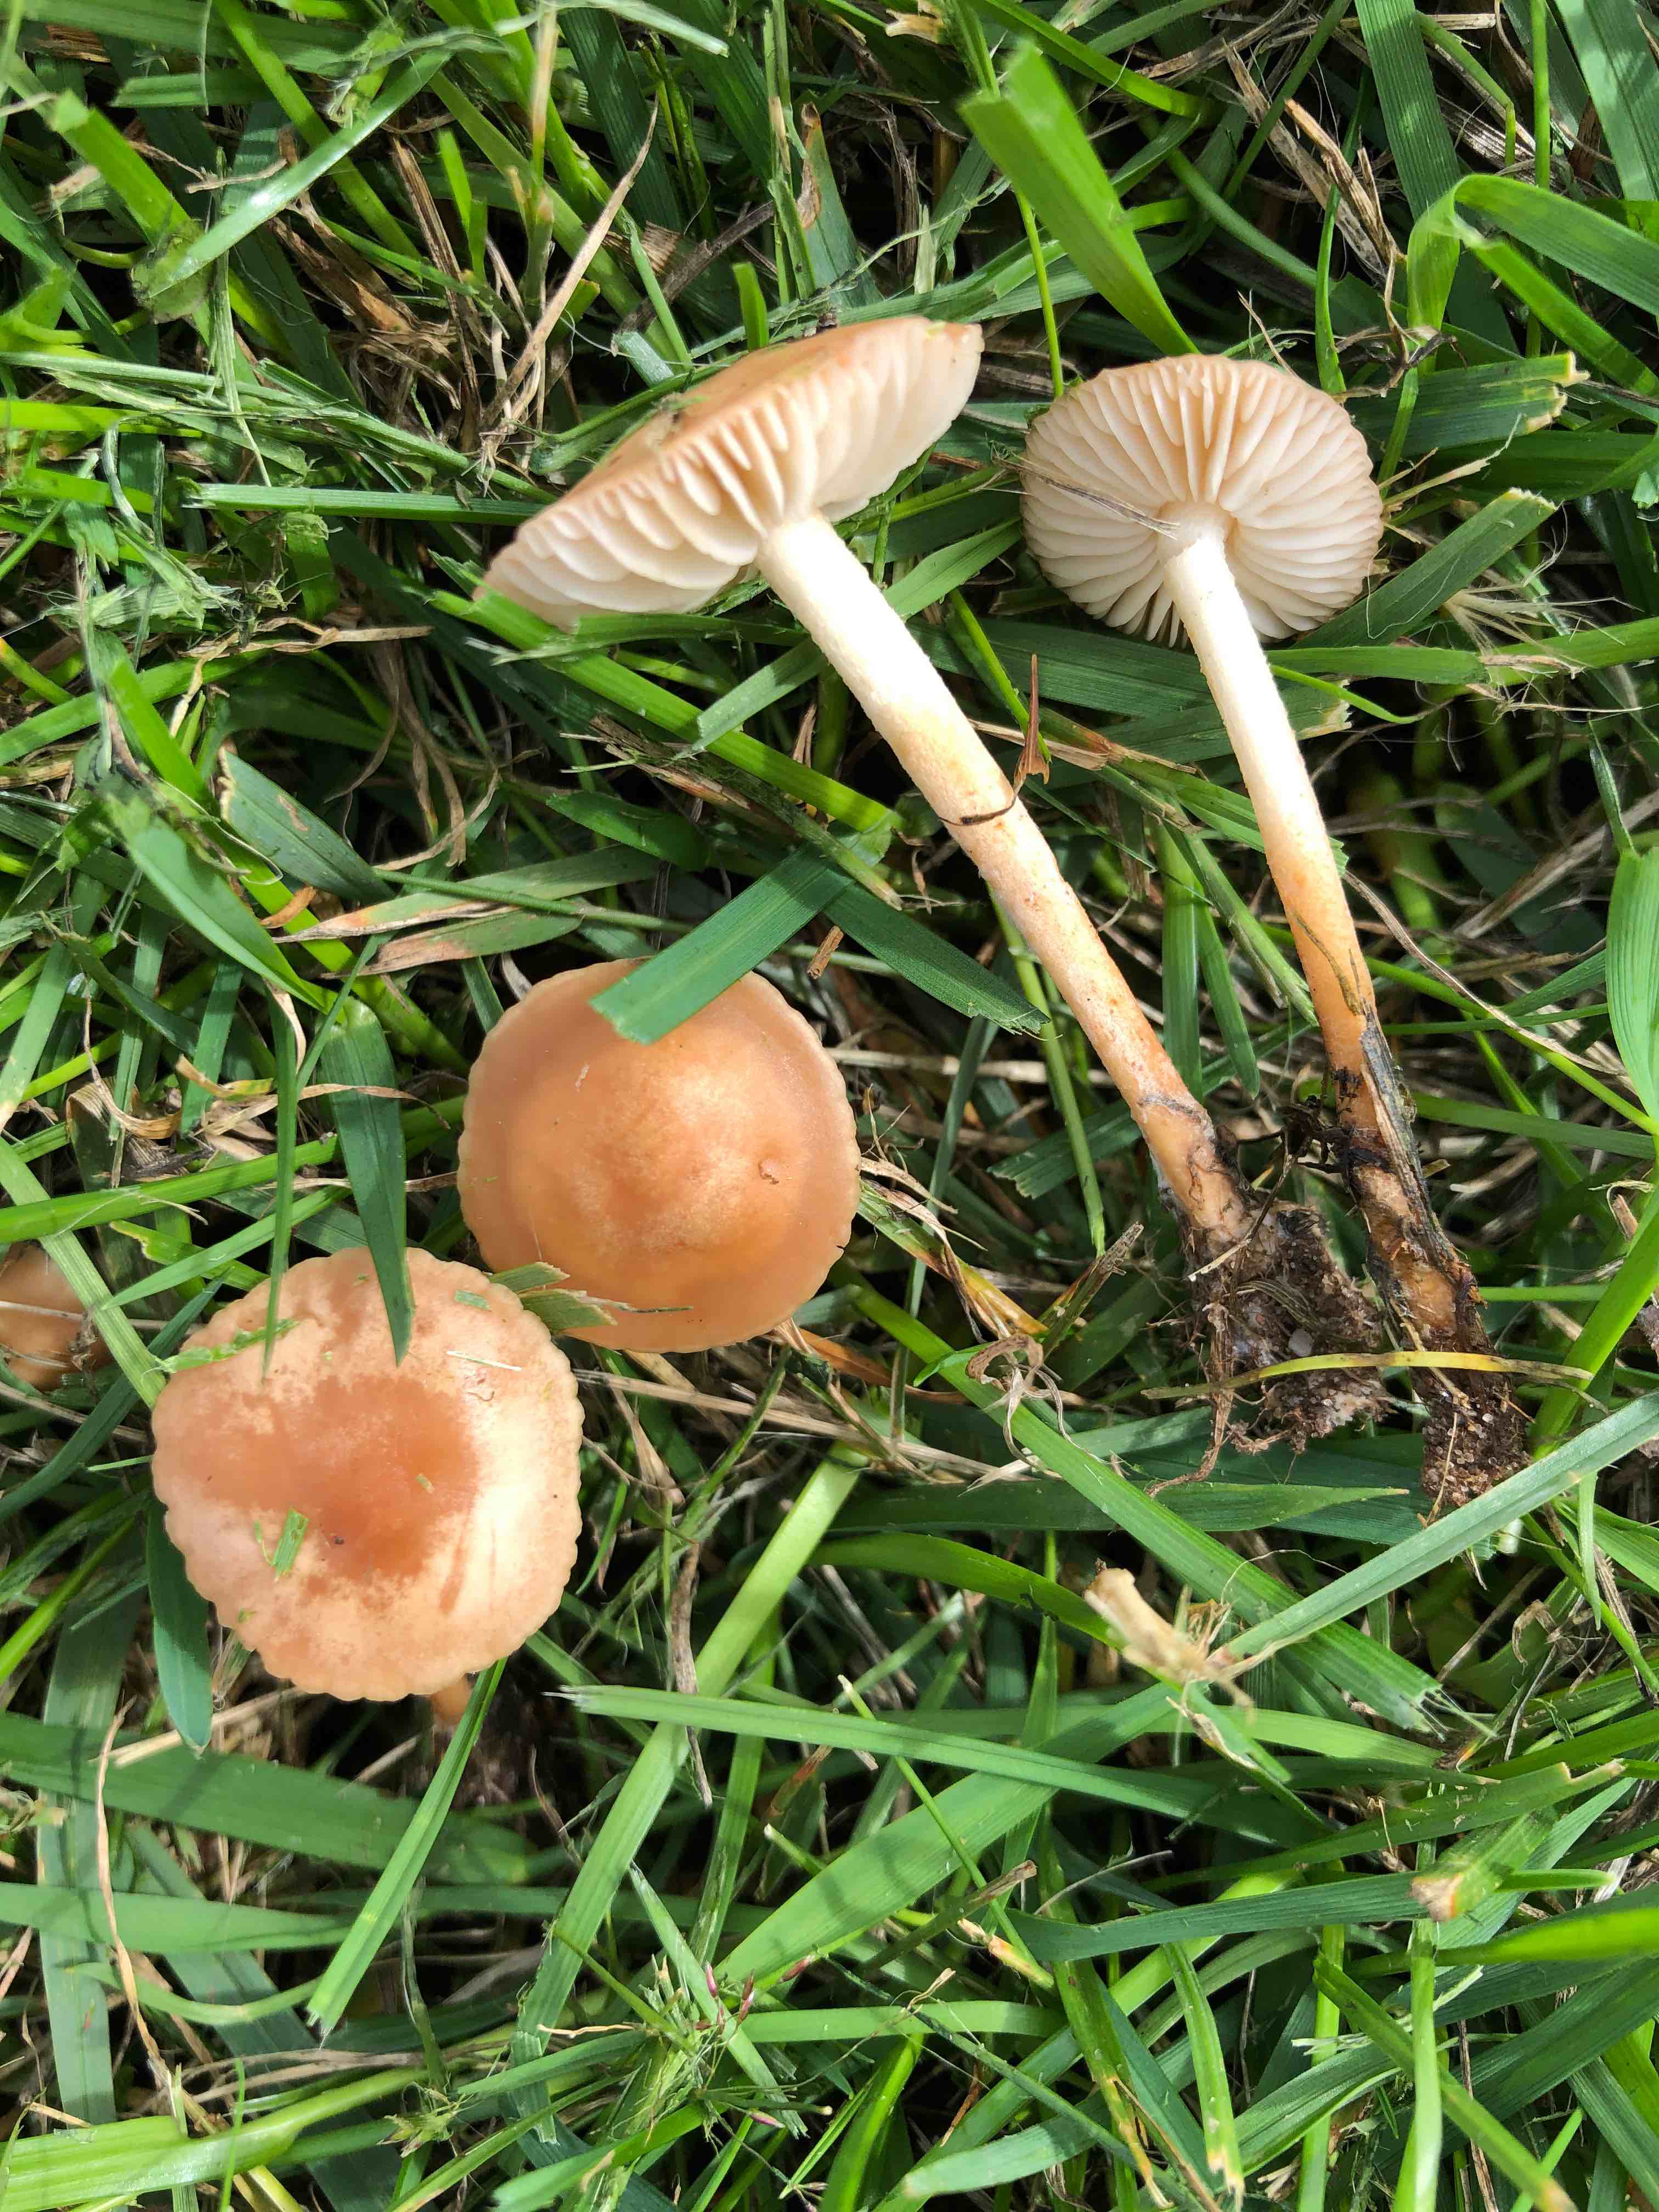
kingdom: Fungi
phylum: Basidiomycota
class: Agaricomycetes
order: Agaricales
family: Marasmiaceae
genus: Marasmius
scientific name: Marasmius oreades
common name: elledans-bruskhat
